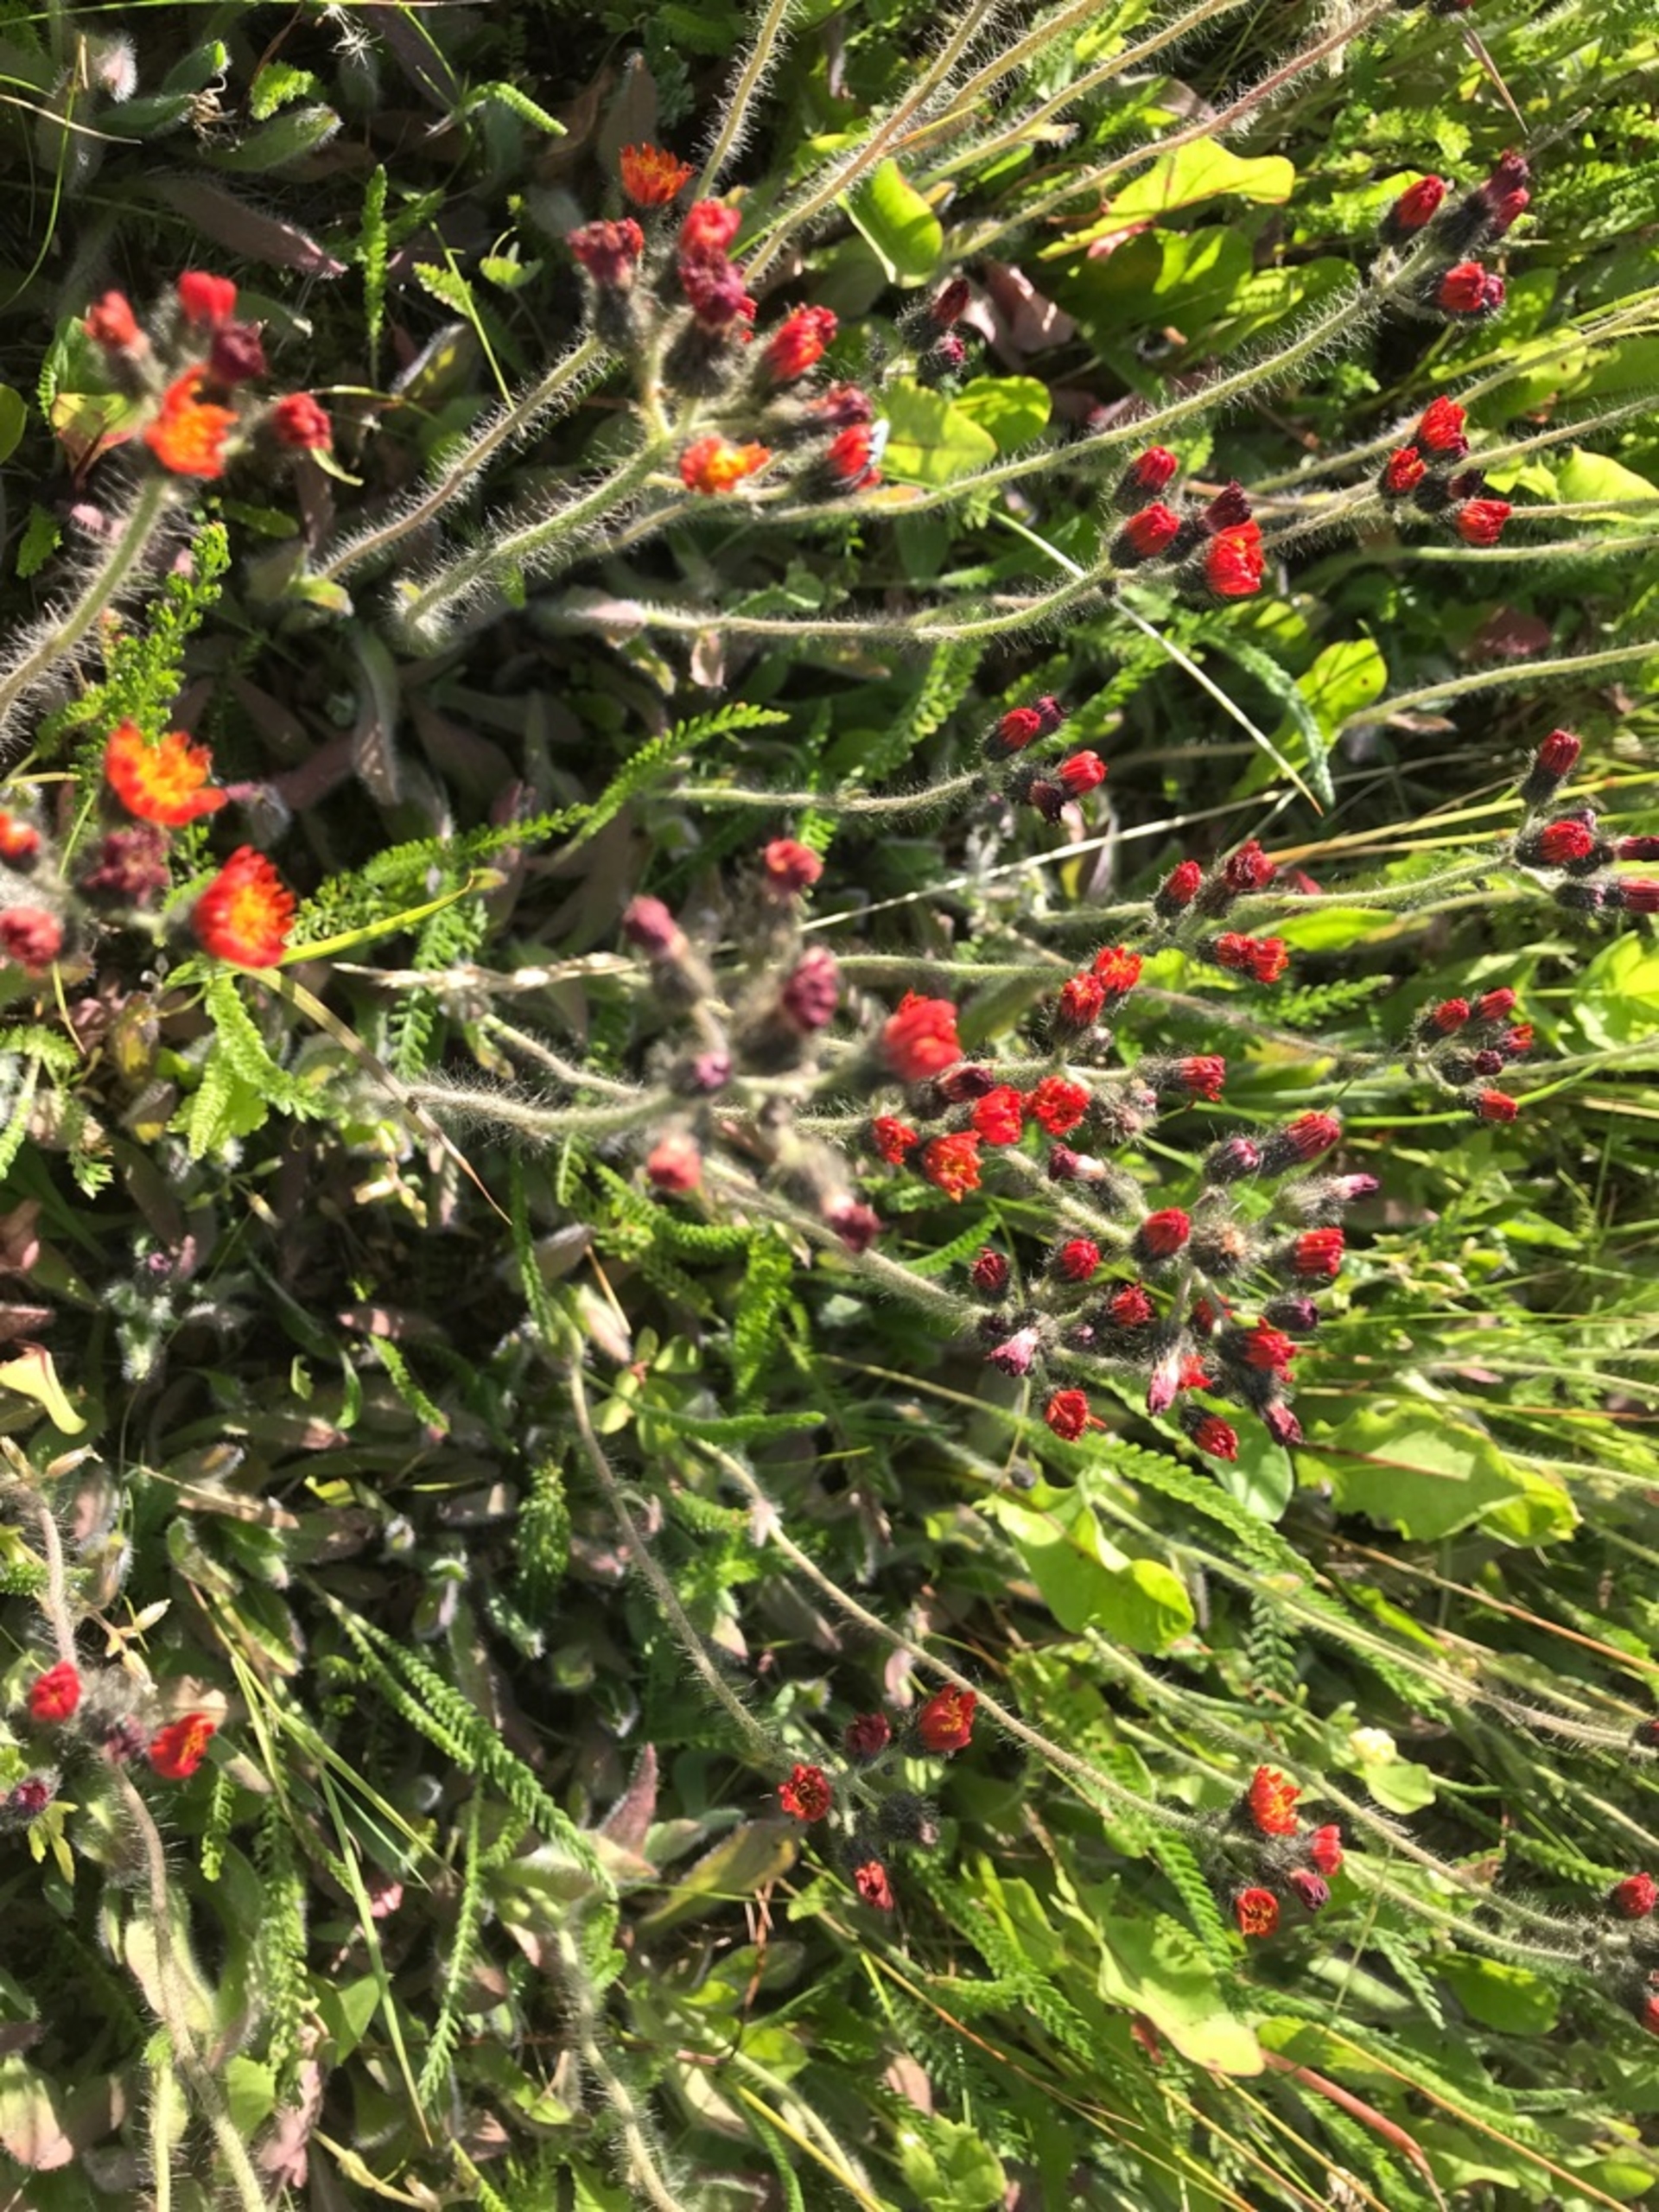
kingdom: Plantae
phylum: Tracheophyta
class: Magnoliopsida
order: Asterales
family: Asteraceae
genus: Pilosella
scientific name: Pilosella aurantiaca
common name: Pomerans-høgeurt
